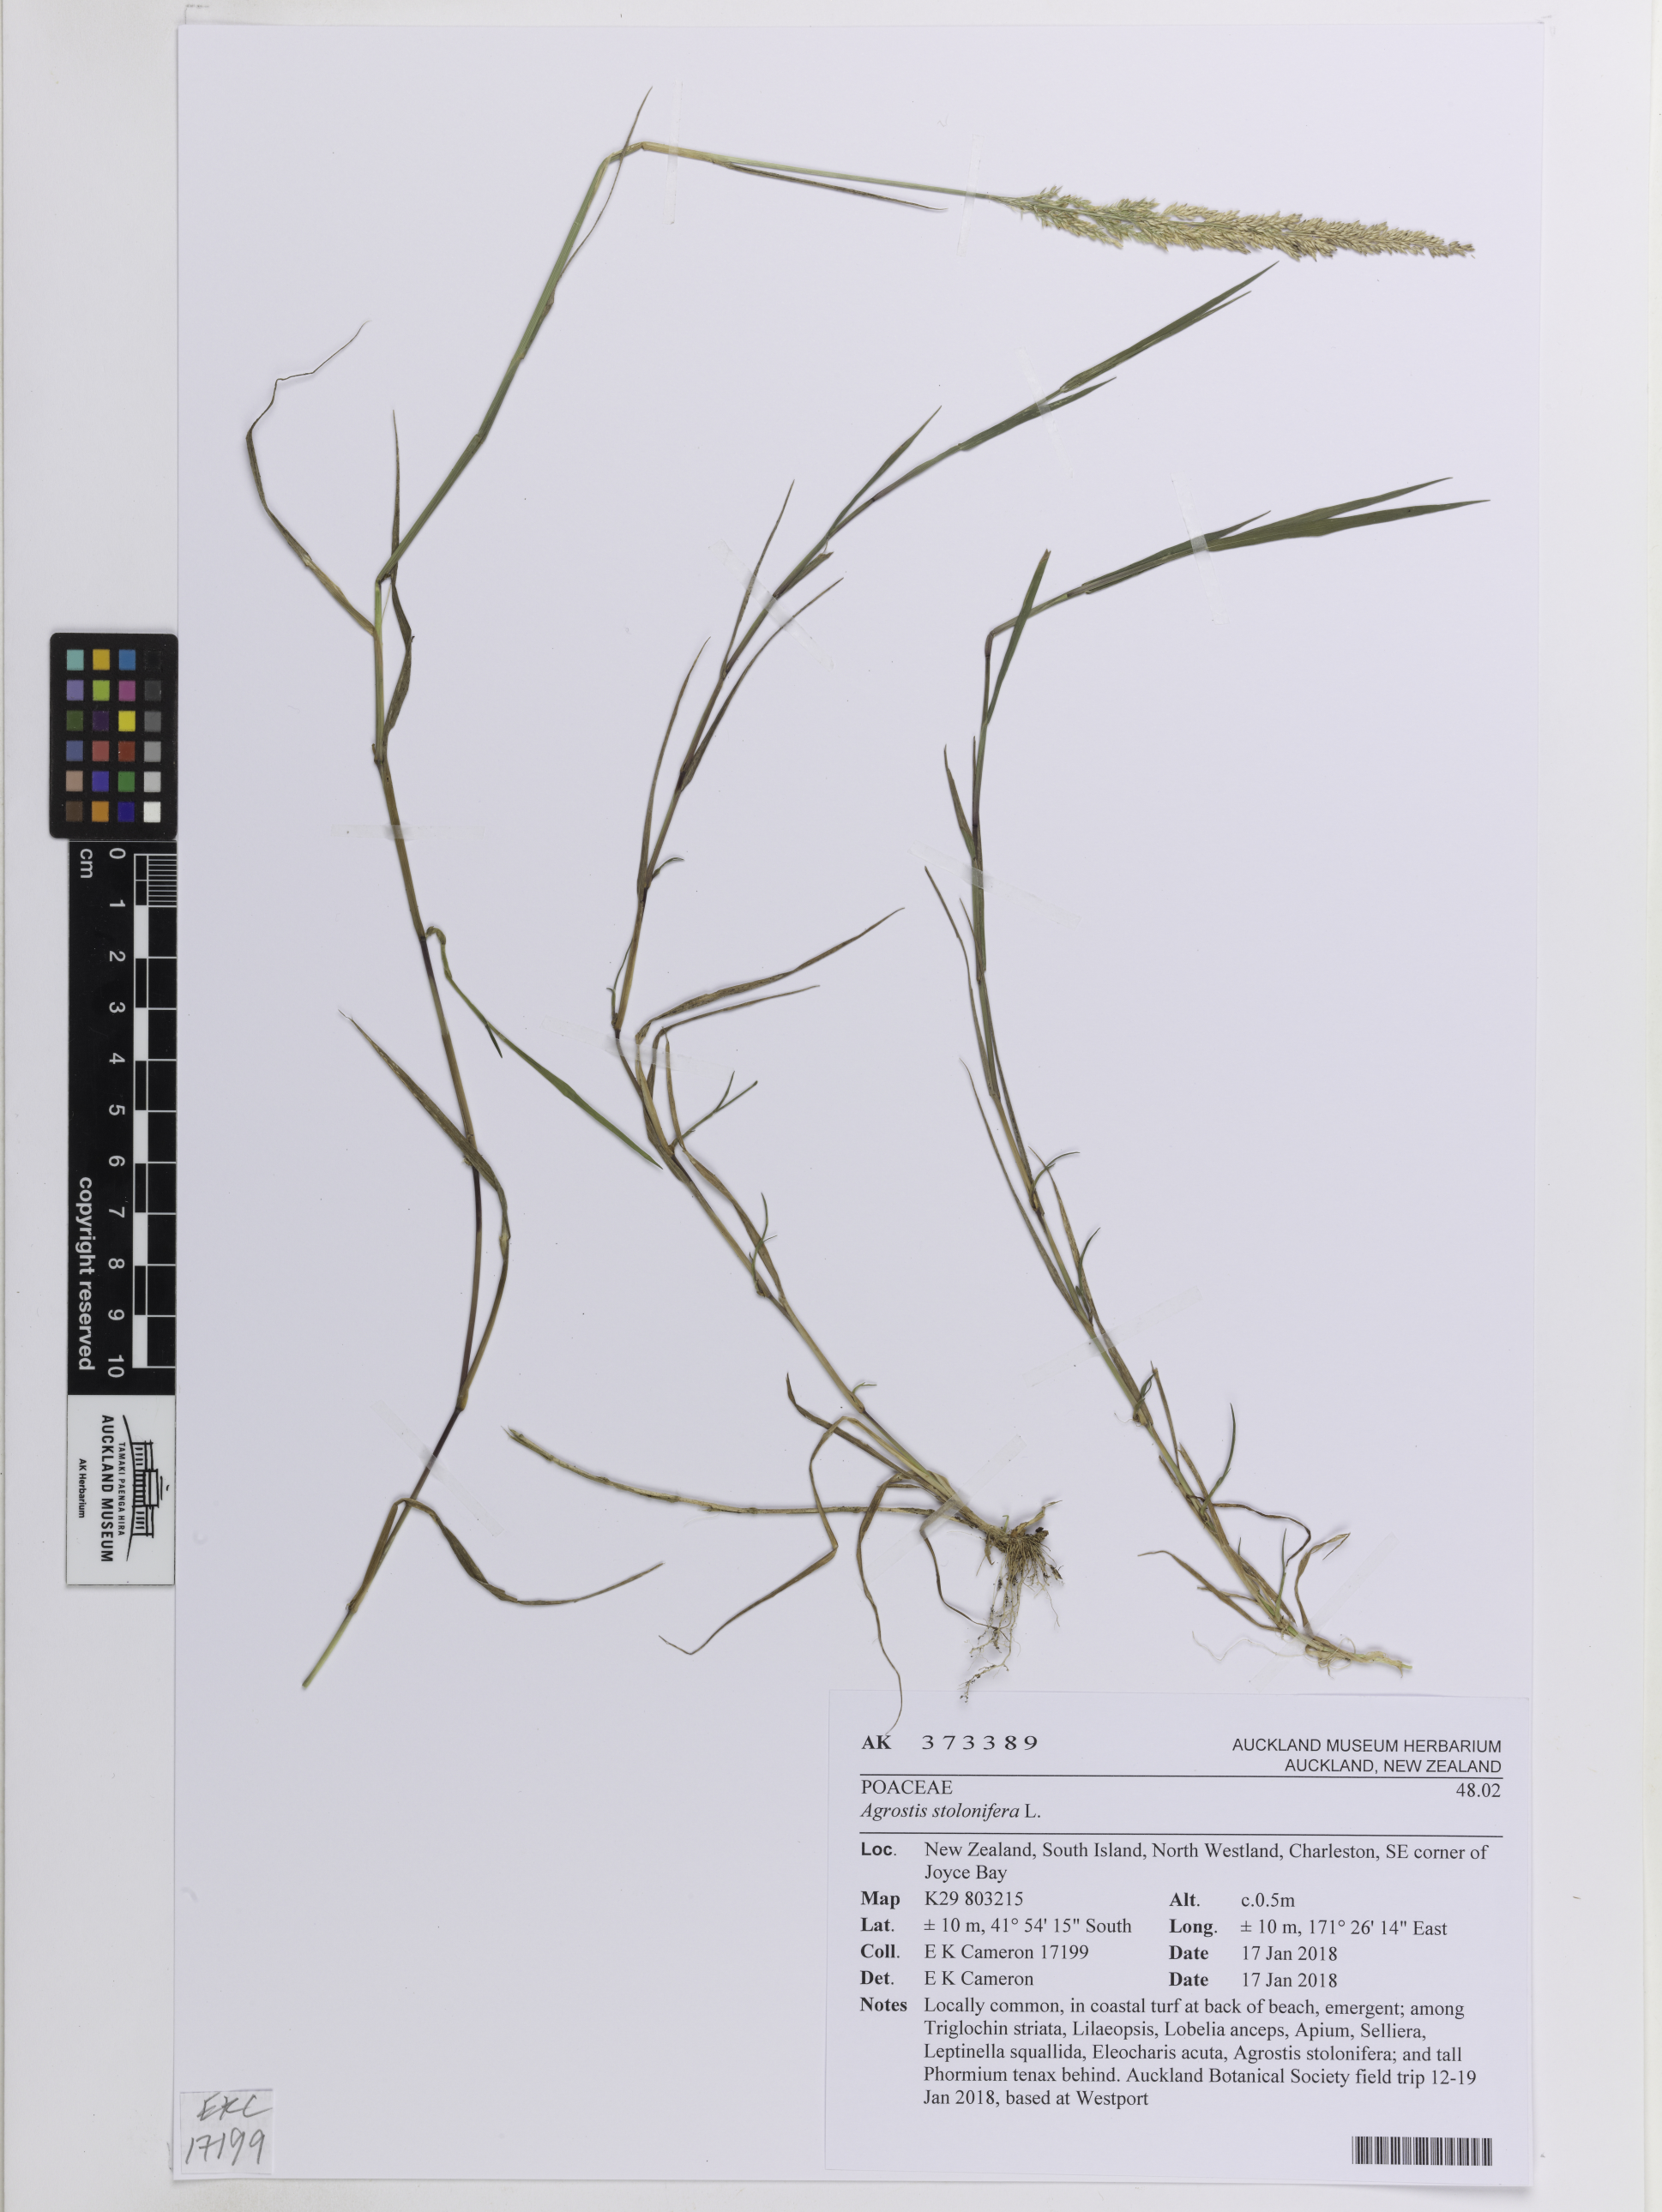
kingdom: Plantae
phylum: Tracheophyta
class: Liliopsida
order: Poales
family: Poaceae
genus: Agrostis
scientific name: Agrostis stolonifera
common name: Creeping bentgrass
